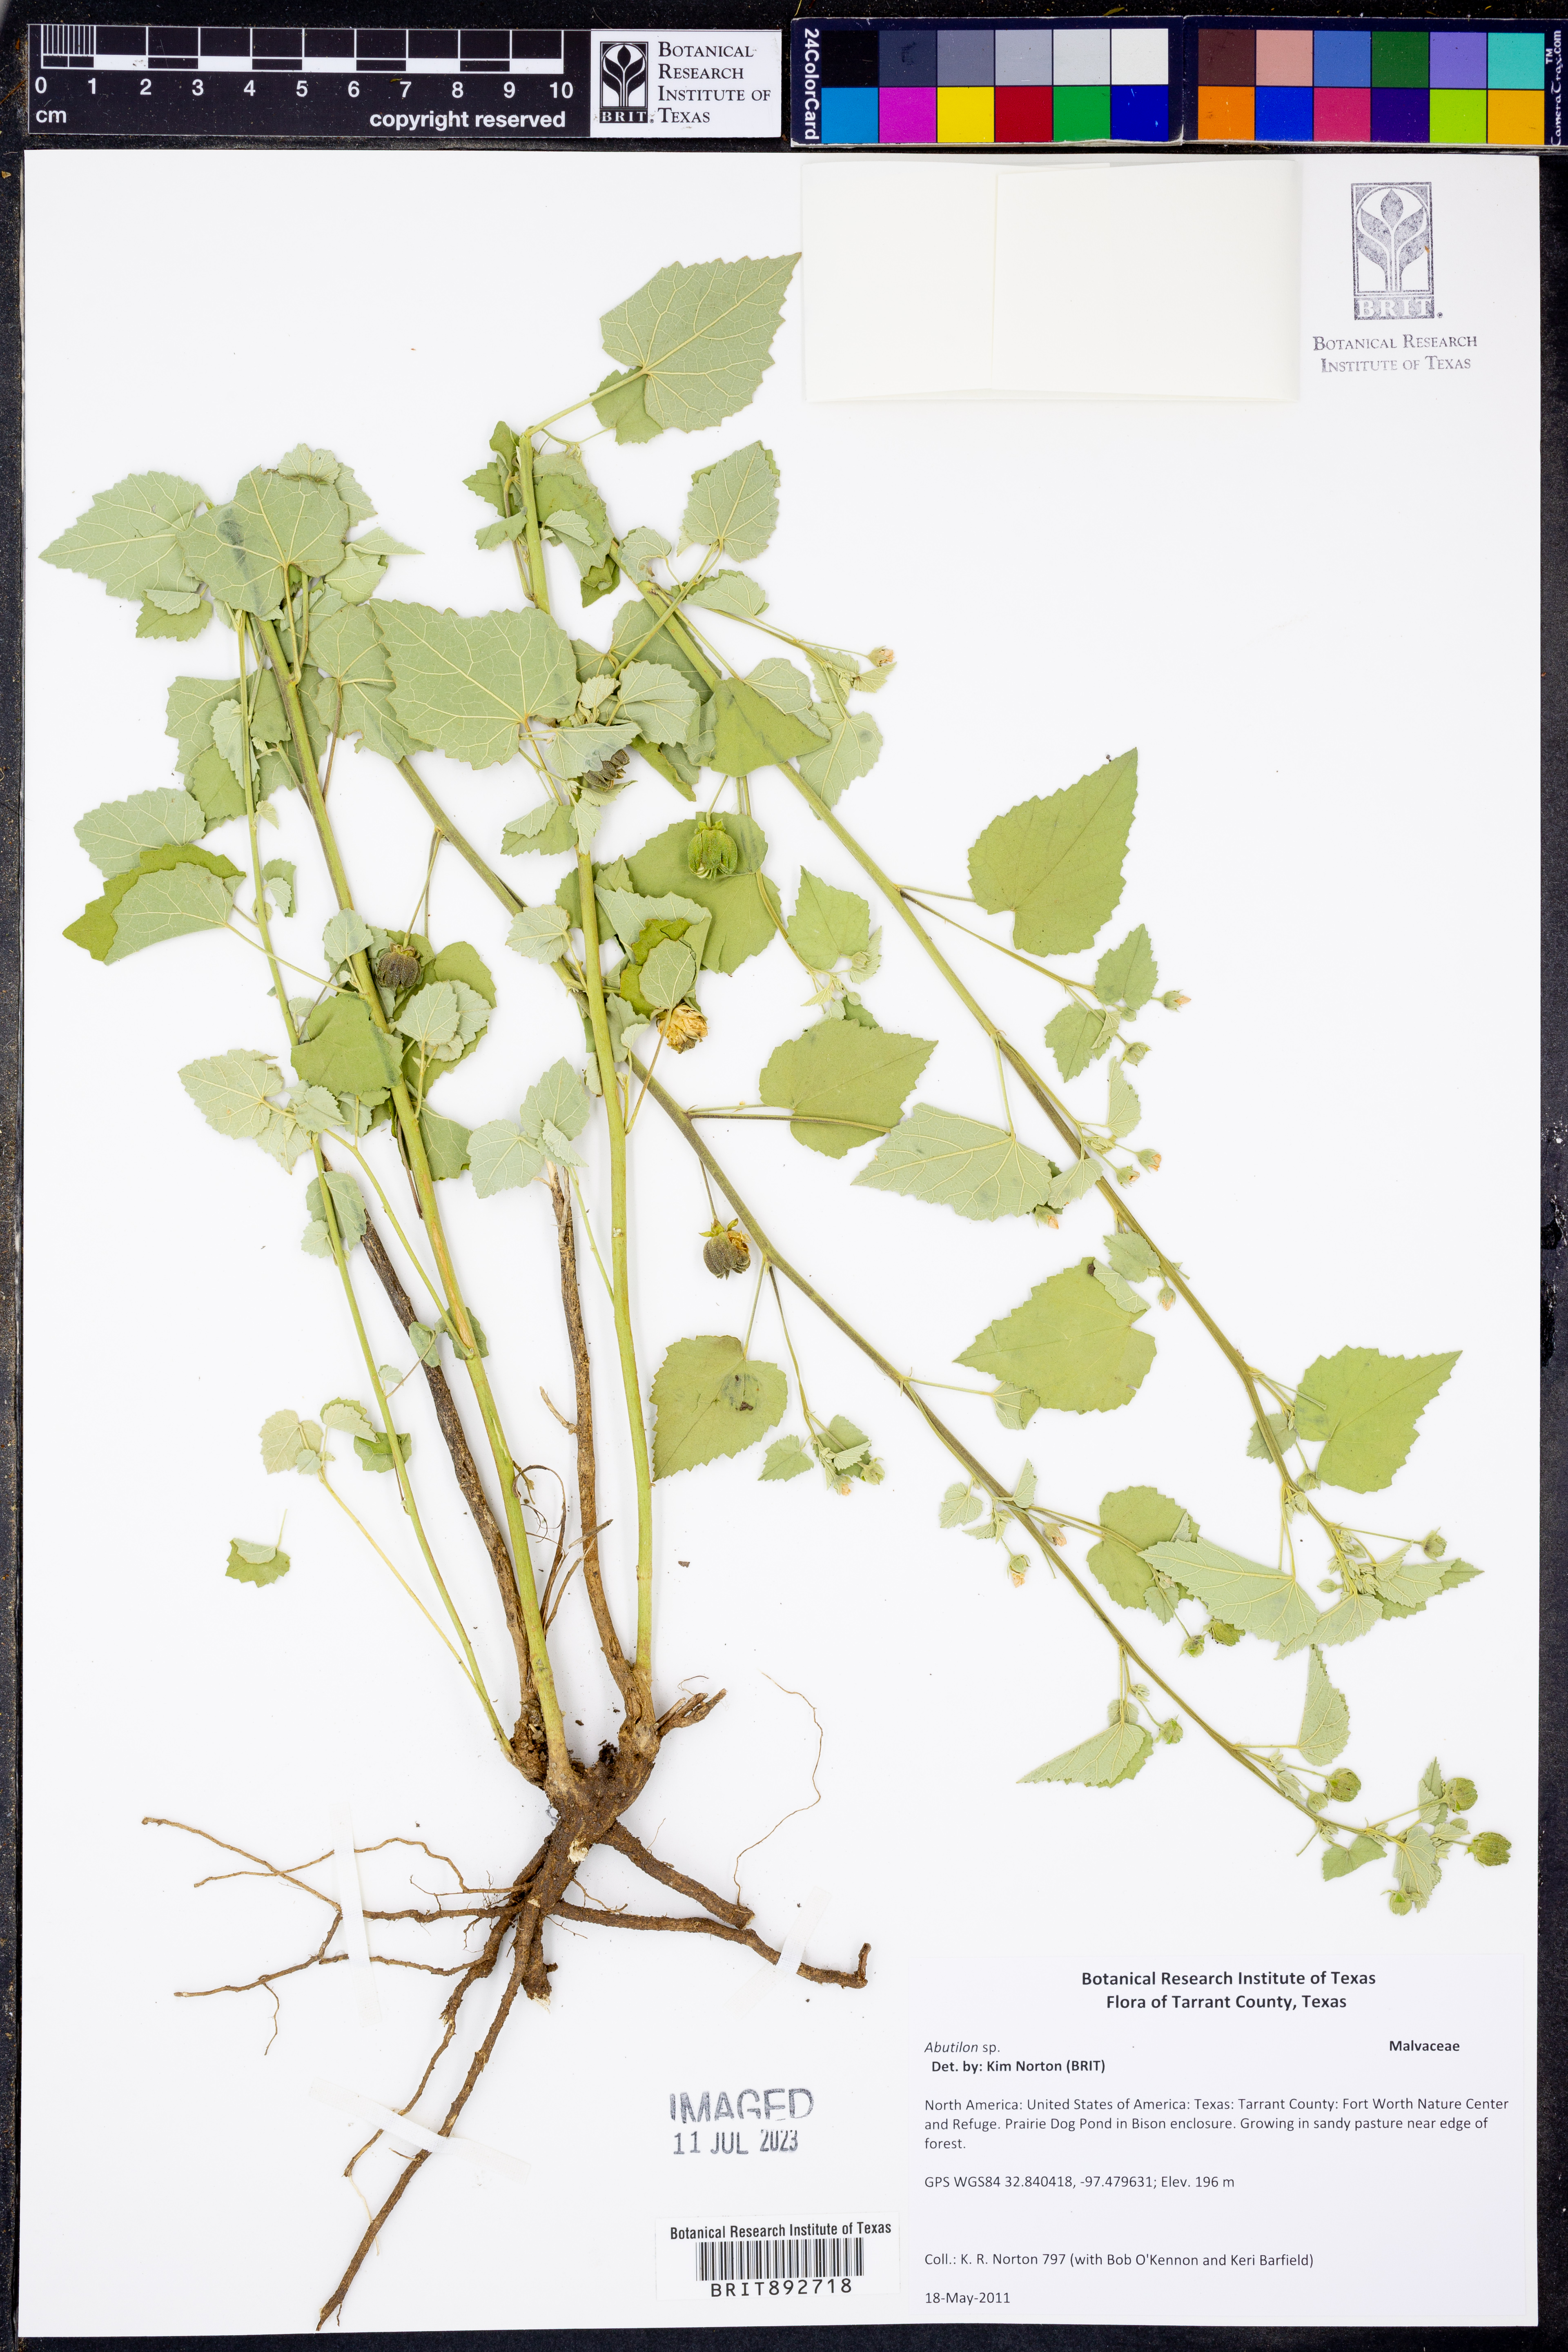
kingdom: Plantae
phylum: Tracheophyta
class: Magnoliopsida
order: Malvales
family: Malvaceae
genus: Abutilon
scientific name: Abutilon
